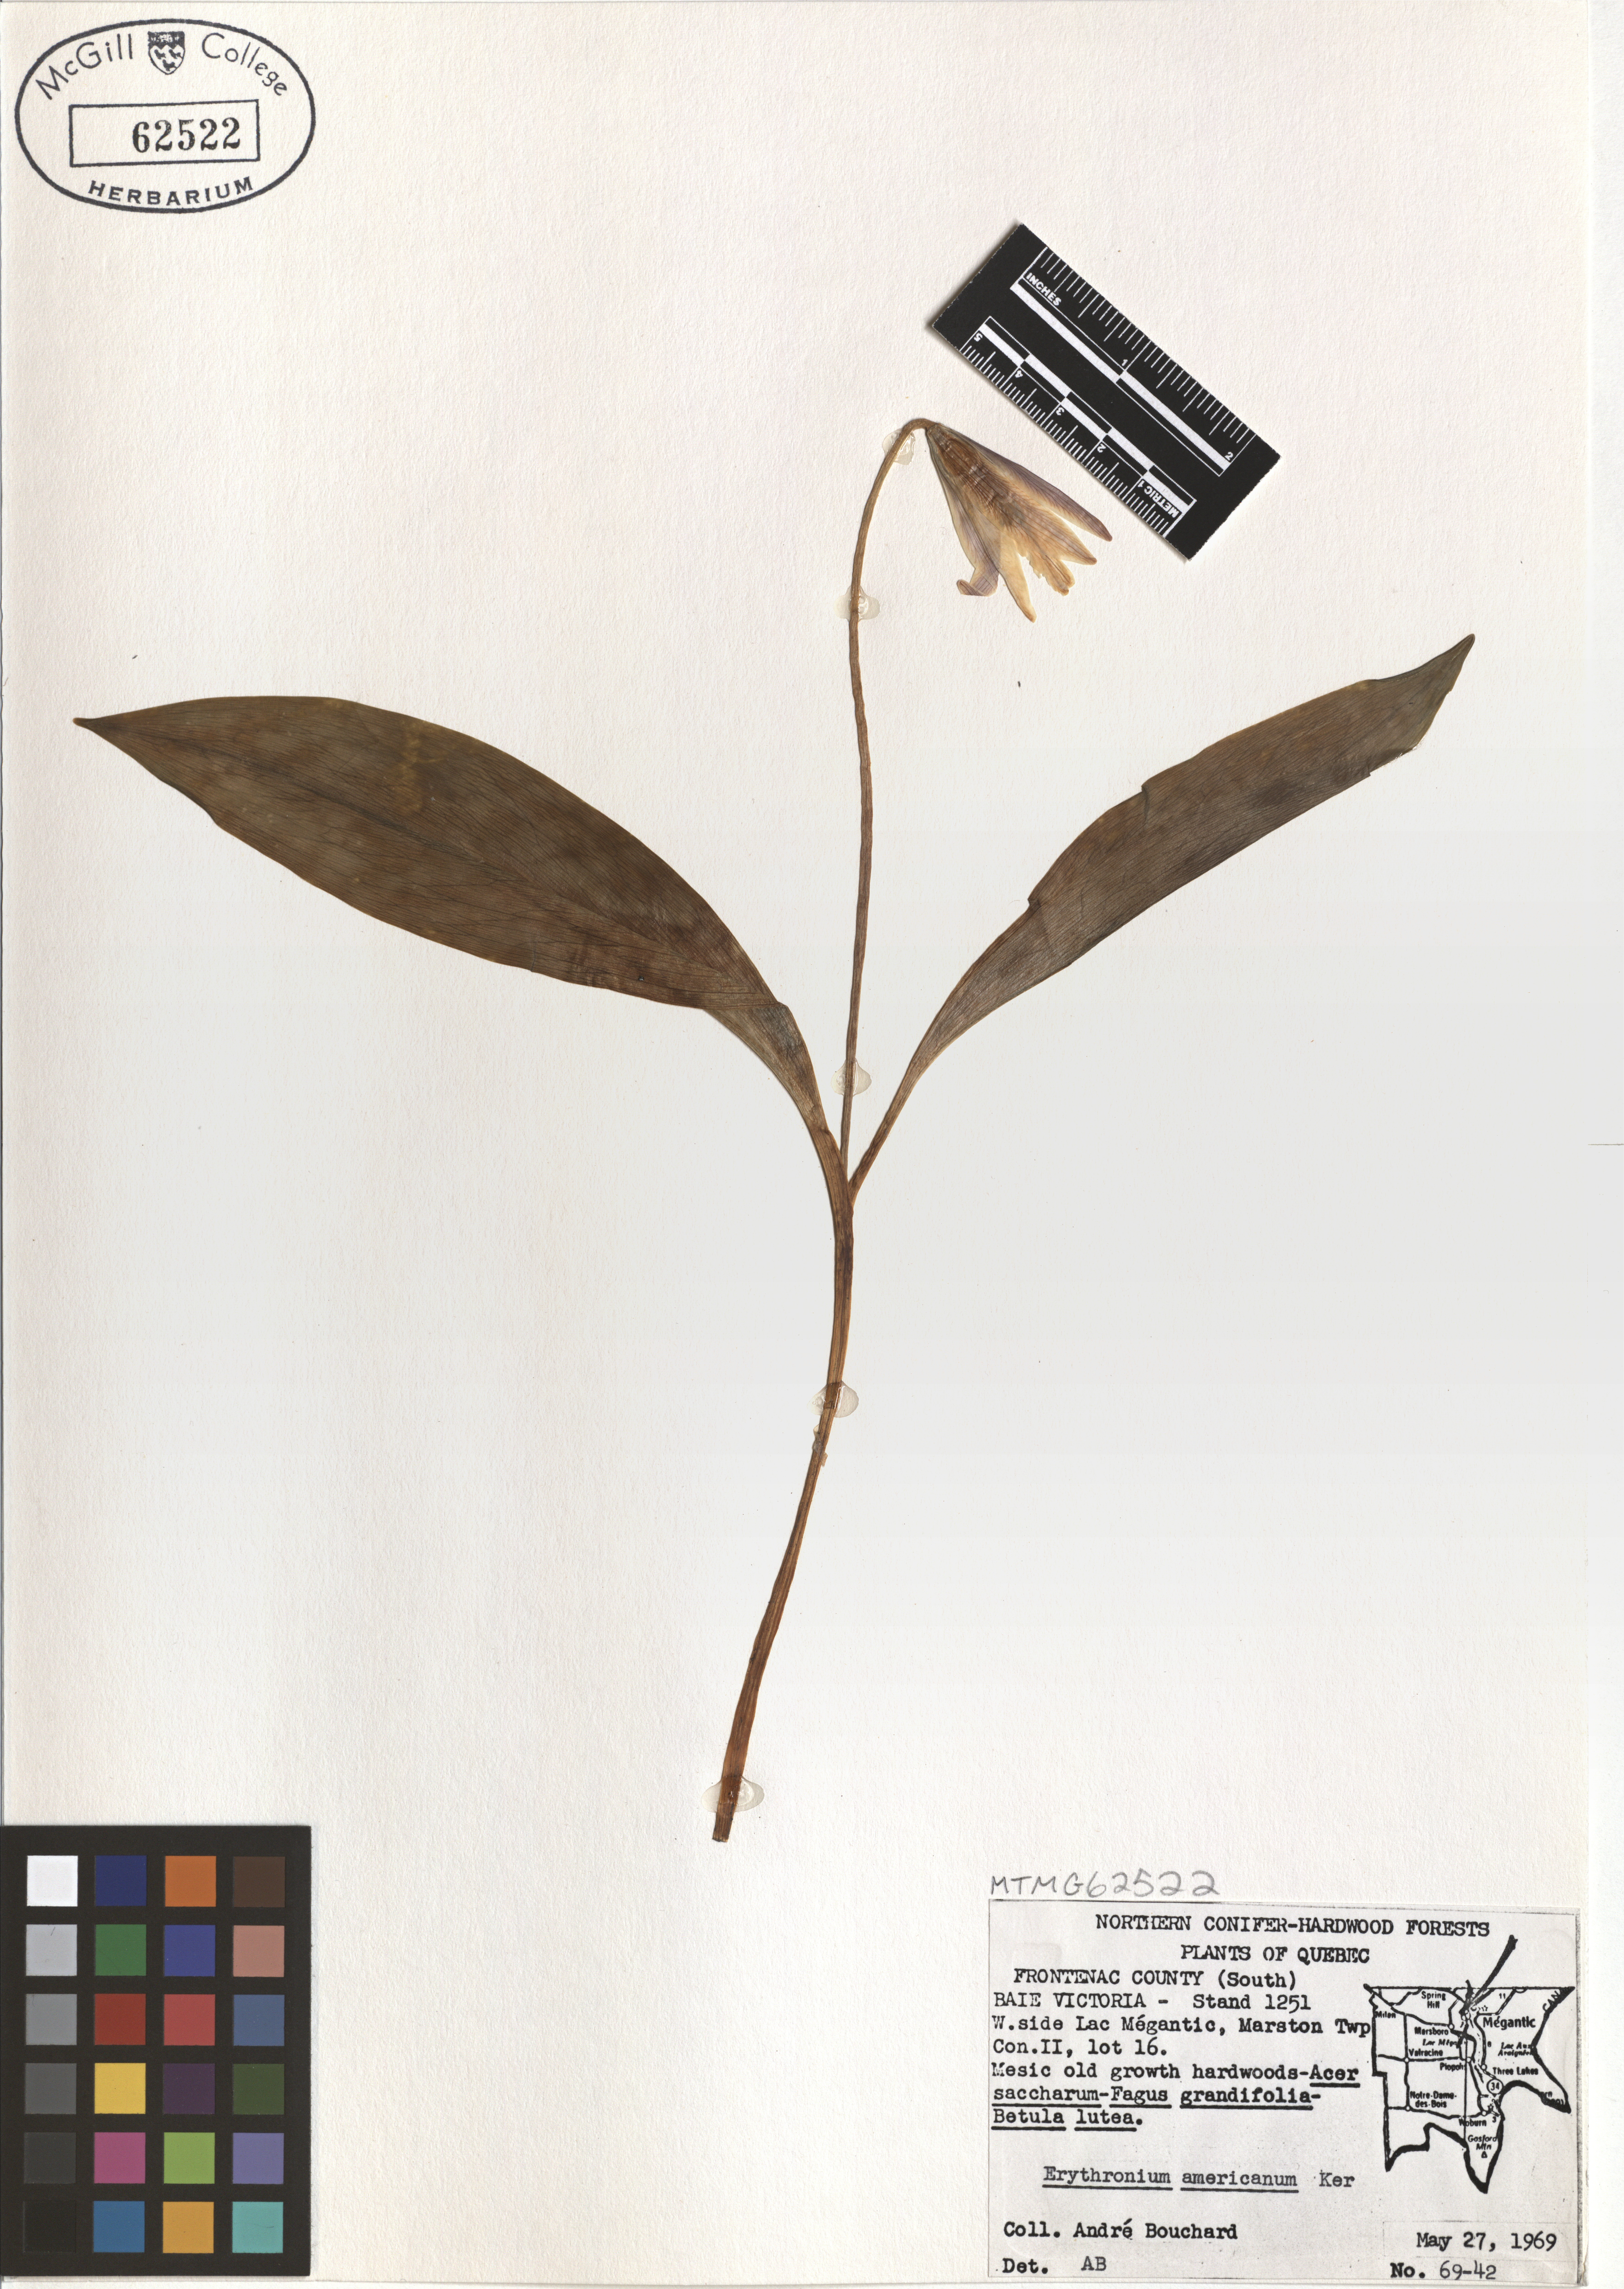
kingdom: Plantae
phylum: Tracheophyta
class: Liliopsida
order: Liliales
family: Liliaceae
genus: Erythronium
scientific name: Erythronium americanum
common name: Yellow adder's-tongue
